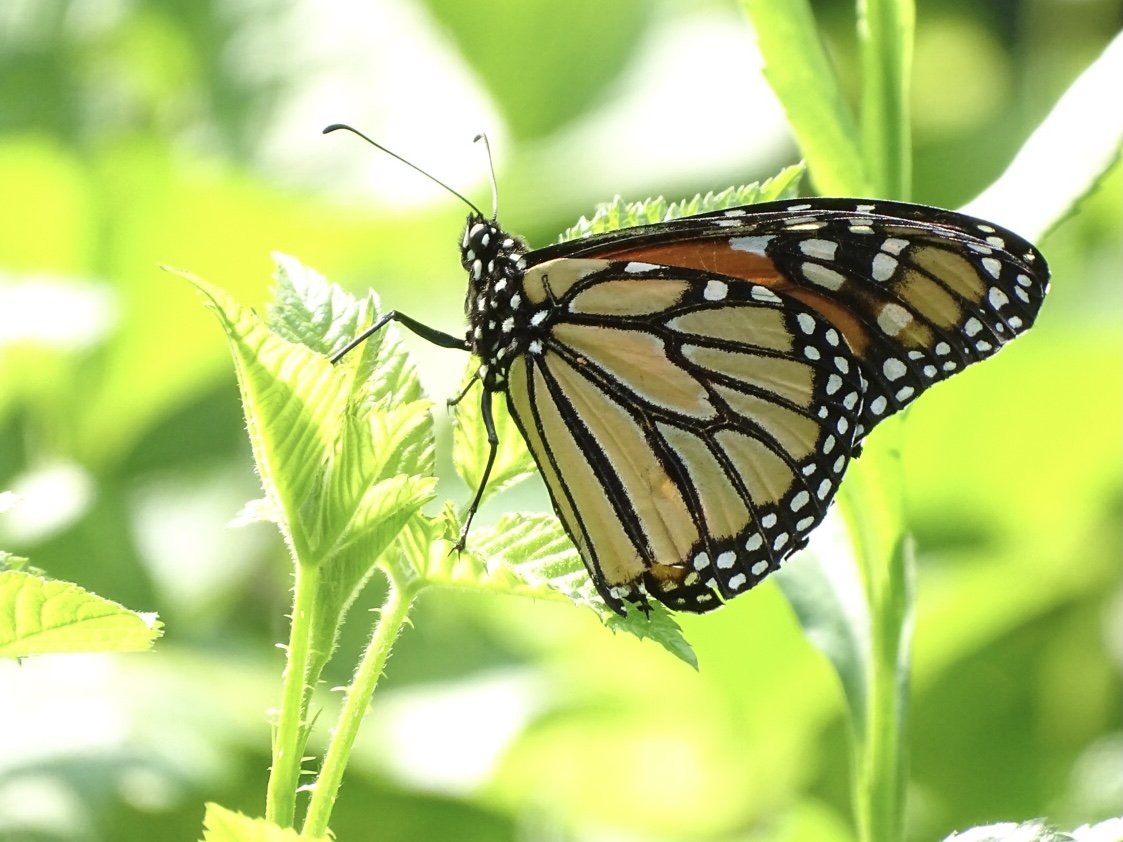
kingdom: Animalia
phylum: Arthropoda
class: Insecta
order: Lepidoptera
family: Nymphalidae
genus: Danaus
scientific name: Danaus plexippus
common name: Monarch
